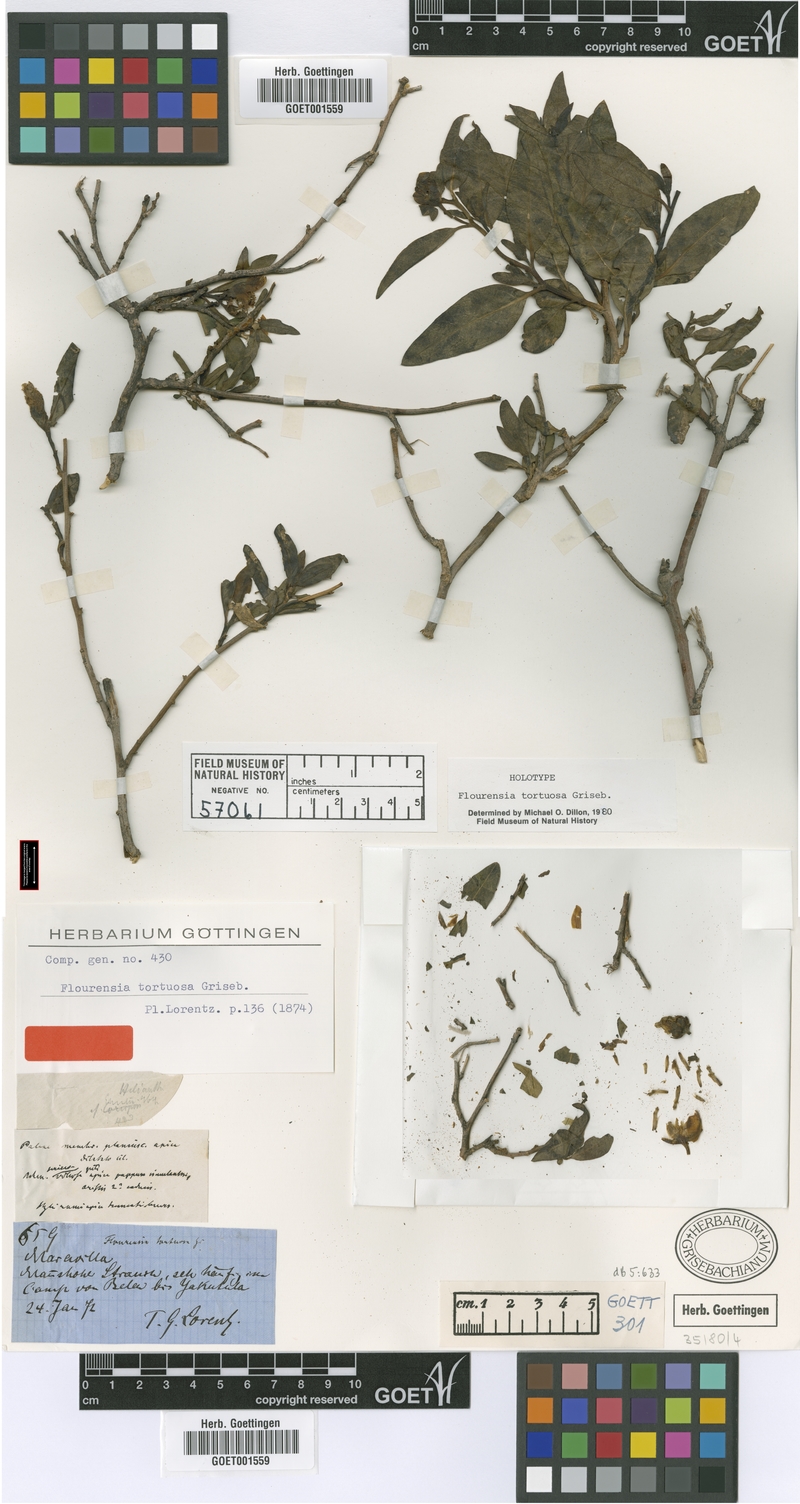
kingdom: Plantae
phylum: Tracheophyta
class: Magnoliopsida
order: Asterales
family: Asteraceae
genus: Flourensia
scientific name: Flourensia tortuosa
